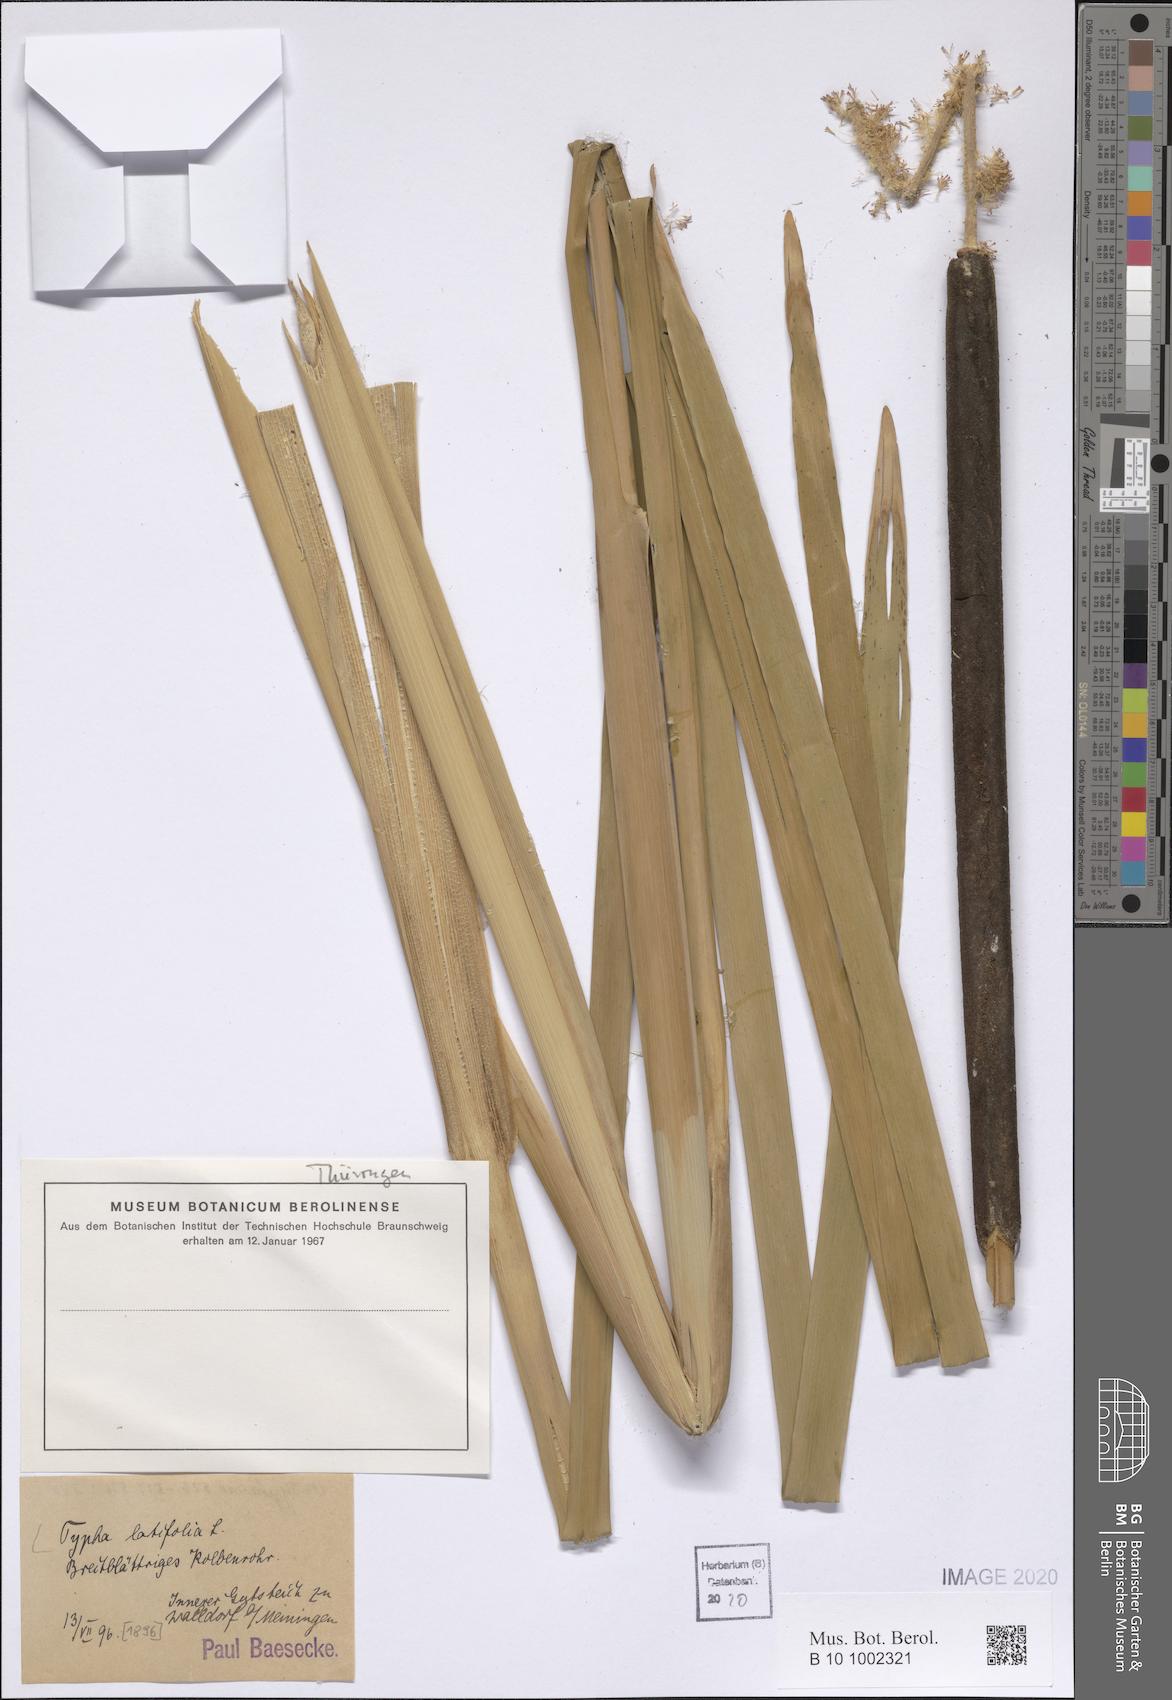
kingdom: Plantae
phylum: Tracheophyta
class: Liliopsida
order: Poales
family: Typhaceae
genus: Typha
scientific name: Typha latifolia
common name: Broadleaf cattail
